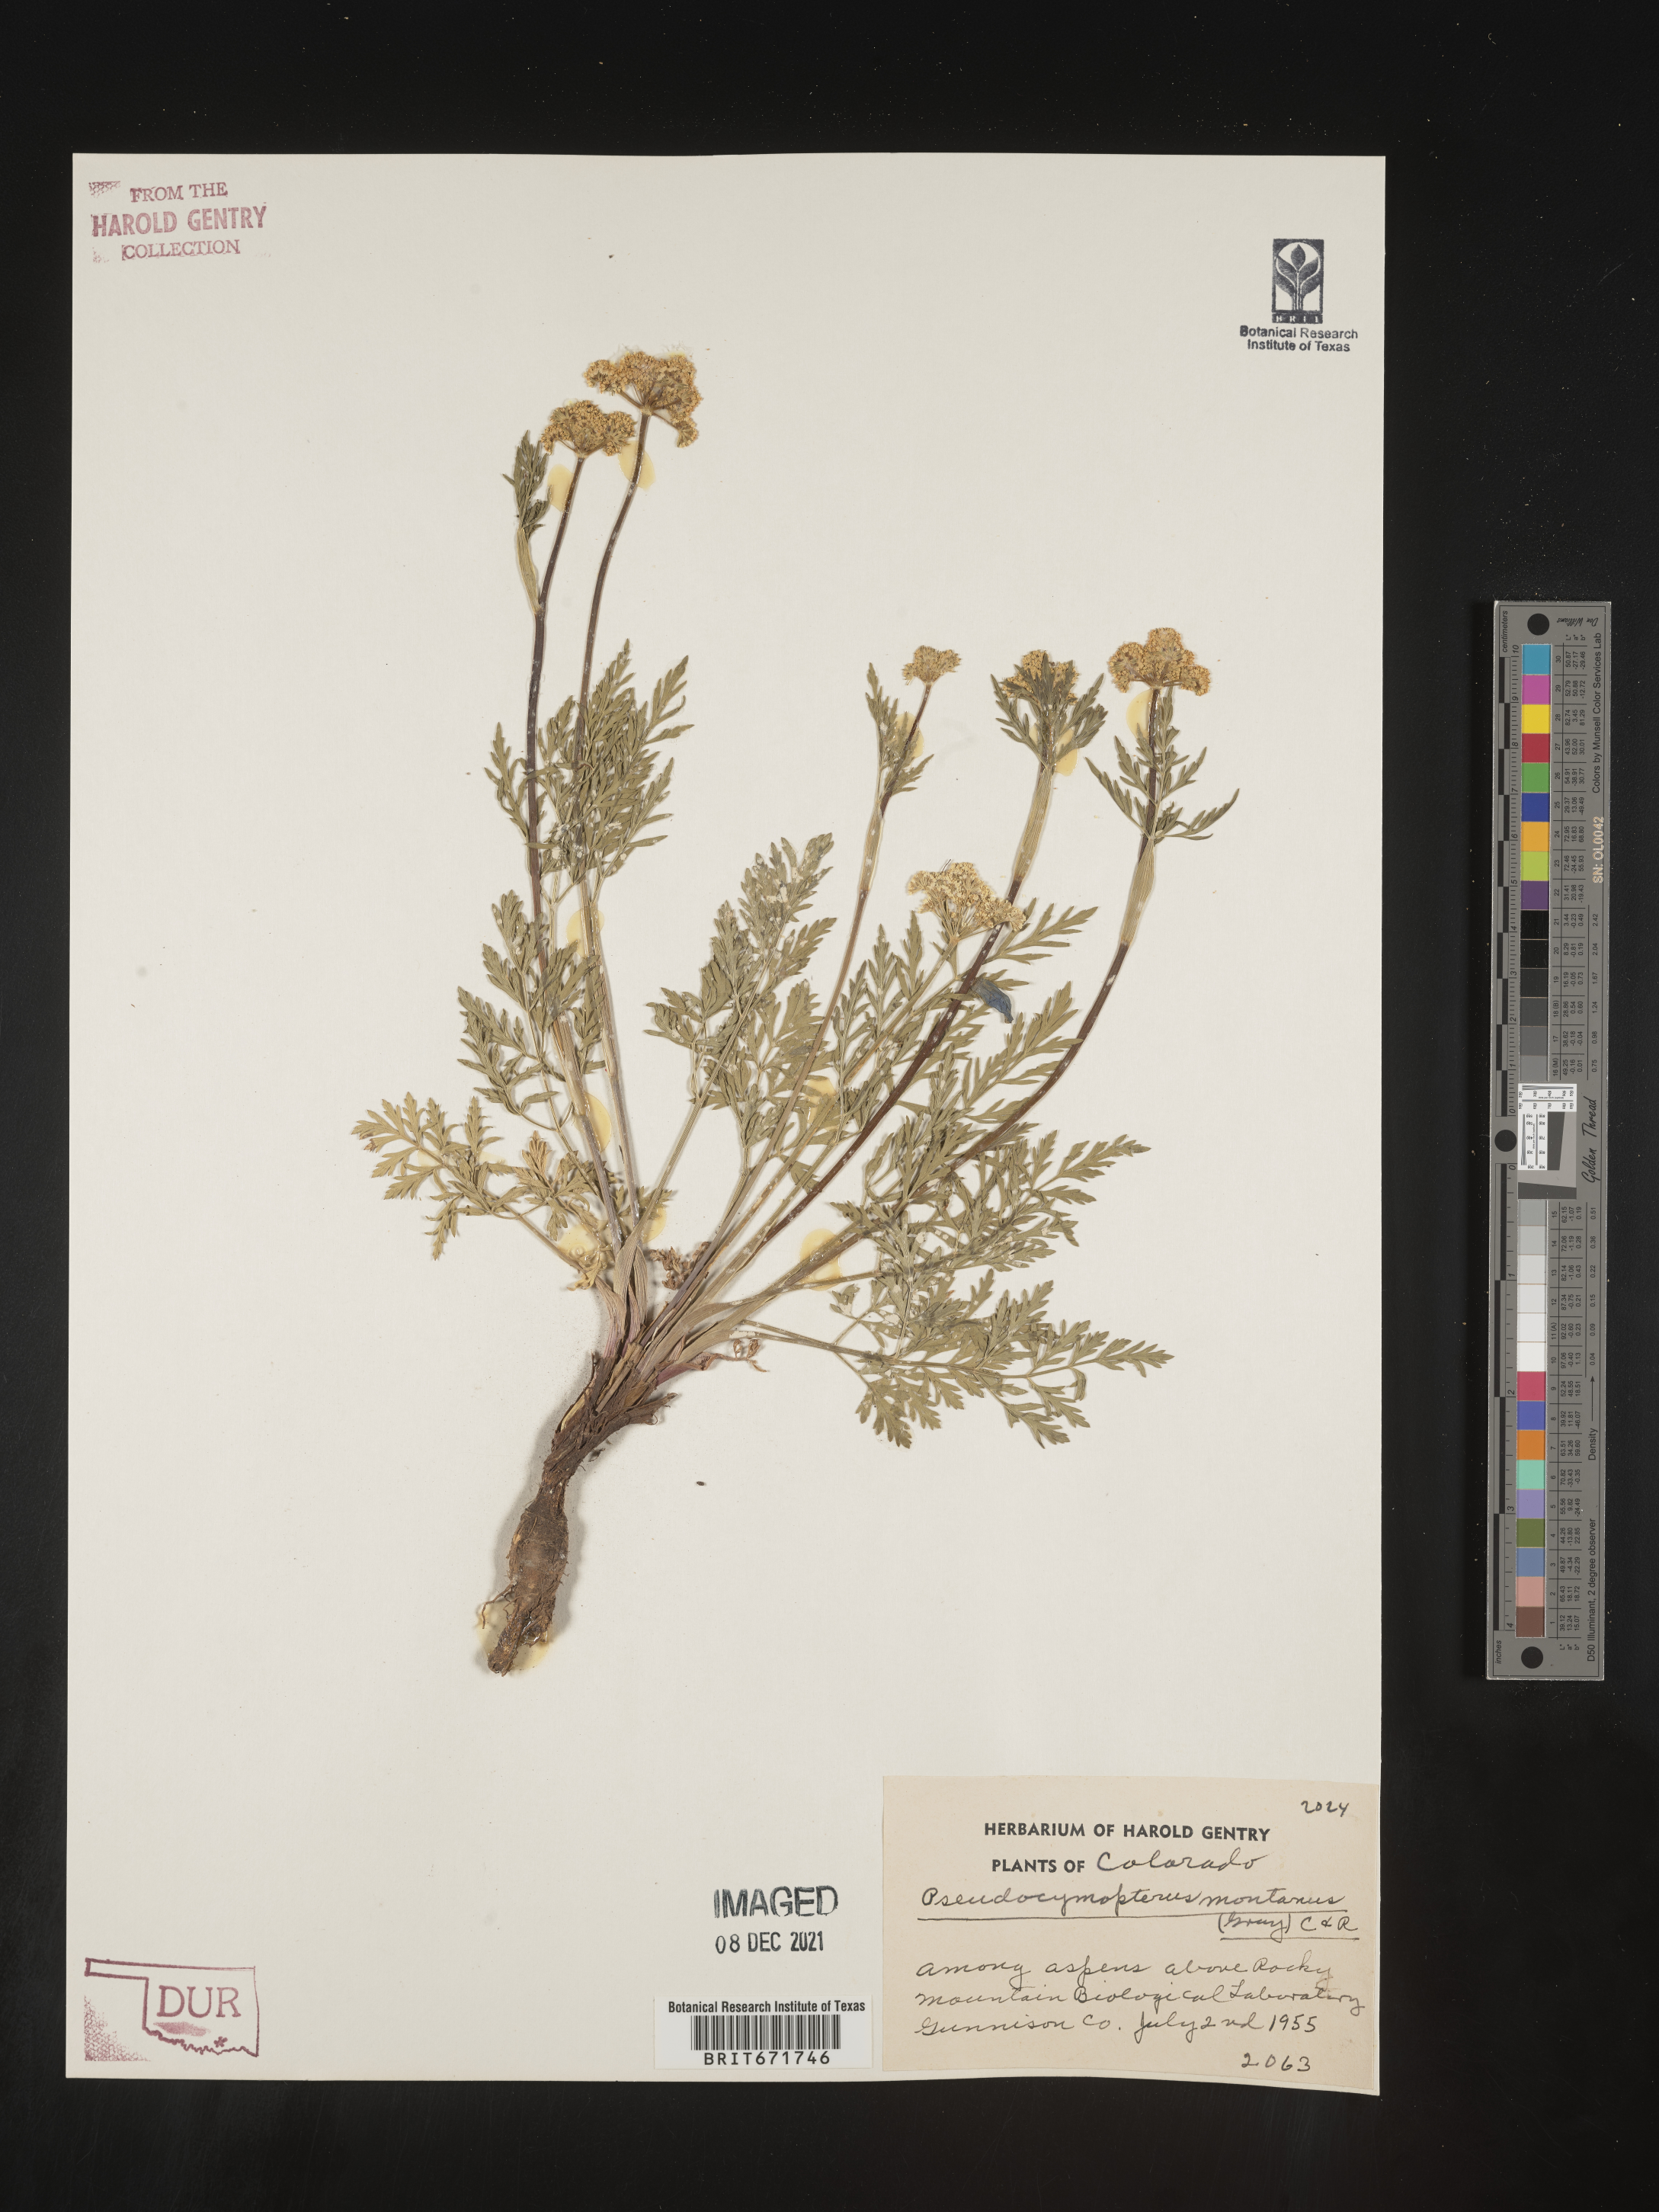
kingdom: Plantae
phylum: Tracheophyta
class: Magnoliopsida
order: Apiales
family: Apiaceae
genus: Cymopterus
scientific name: Cymopterus lemmonii
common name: Lemmon's spring-parsley
